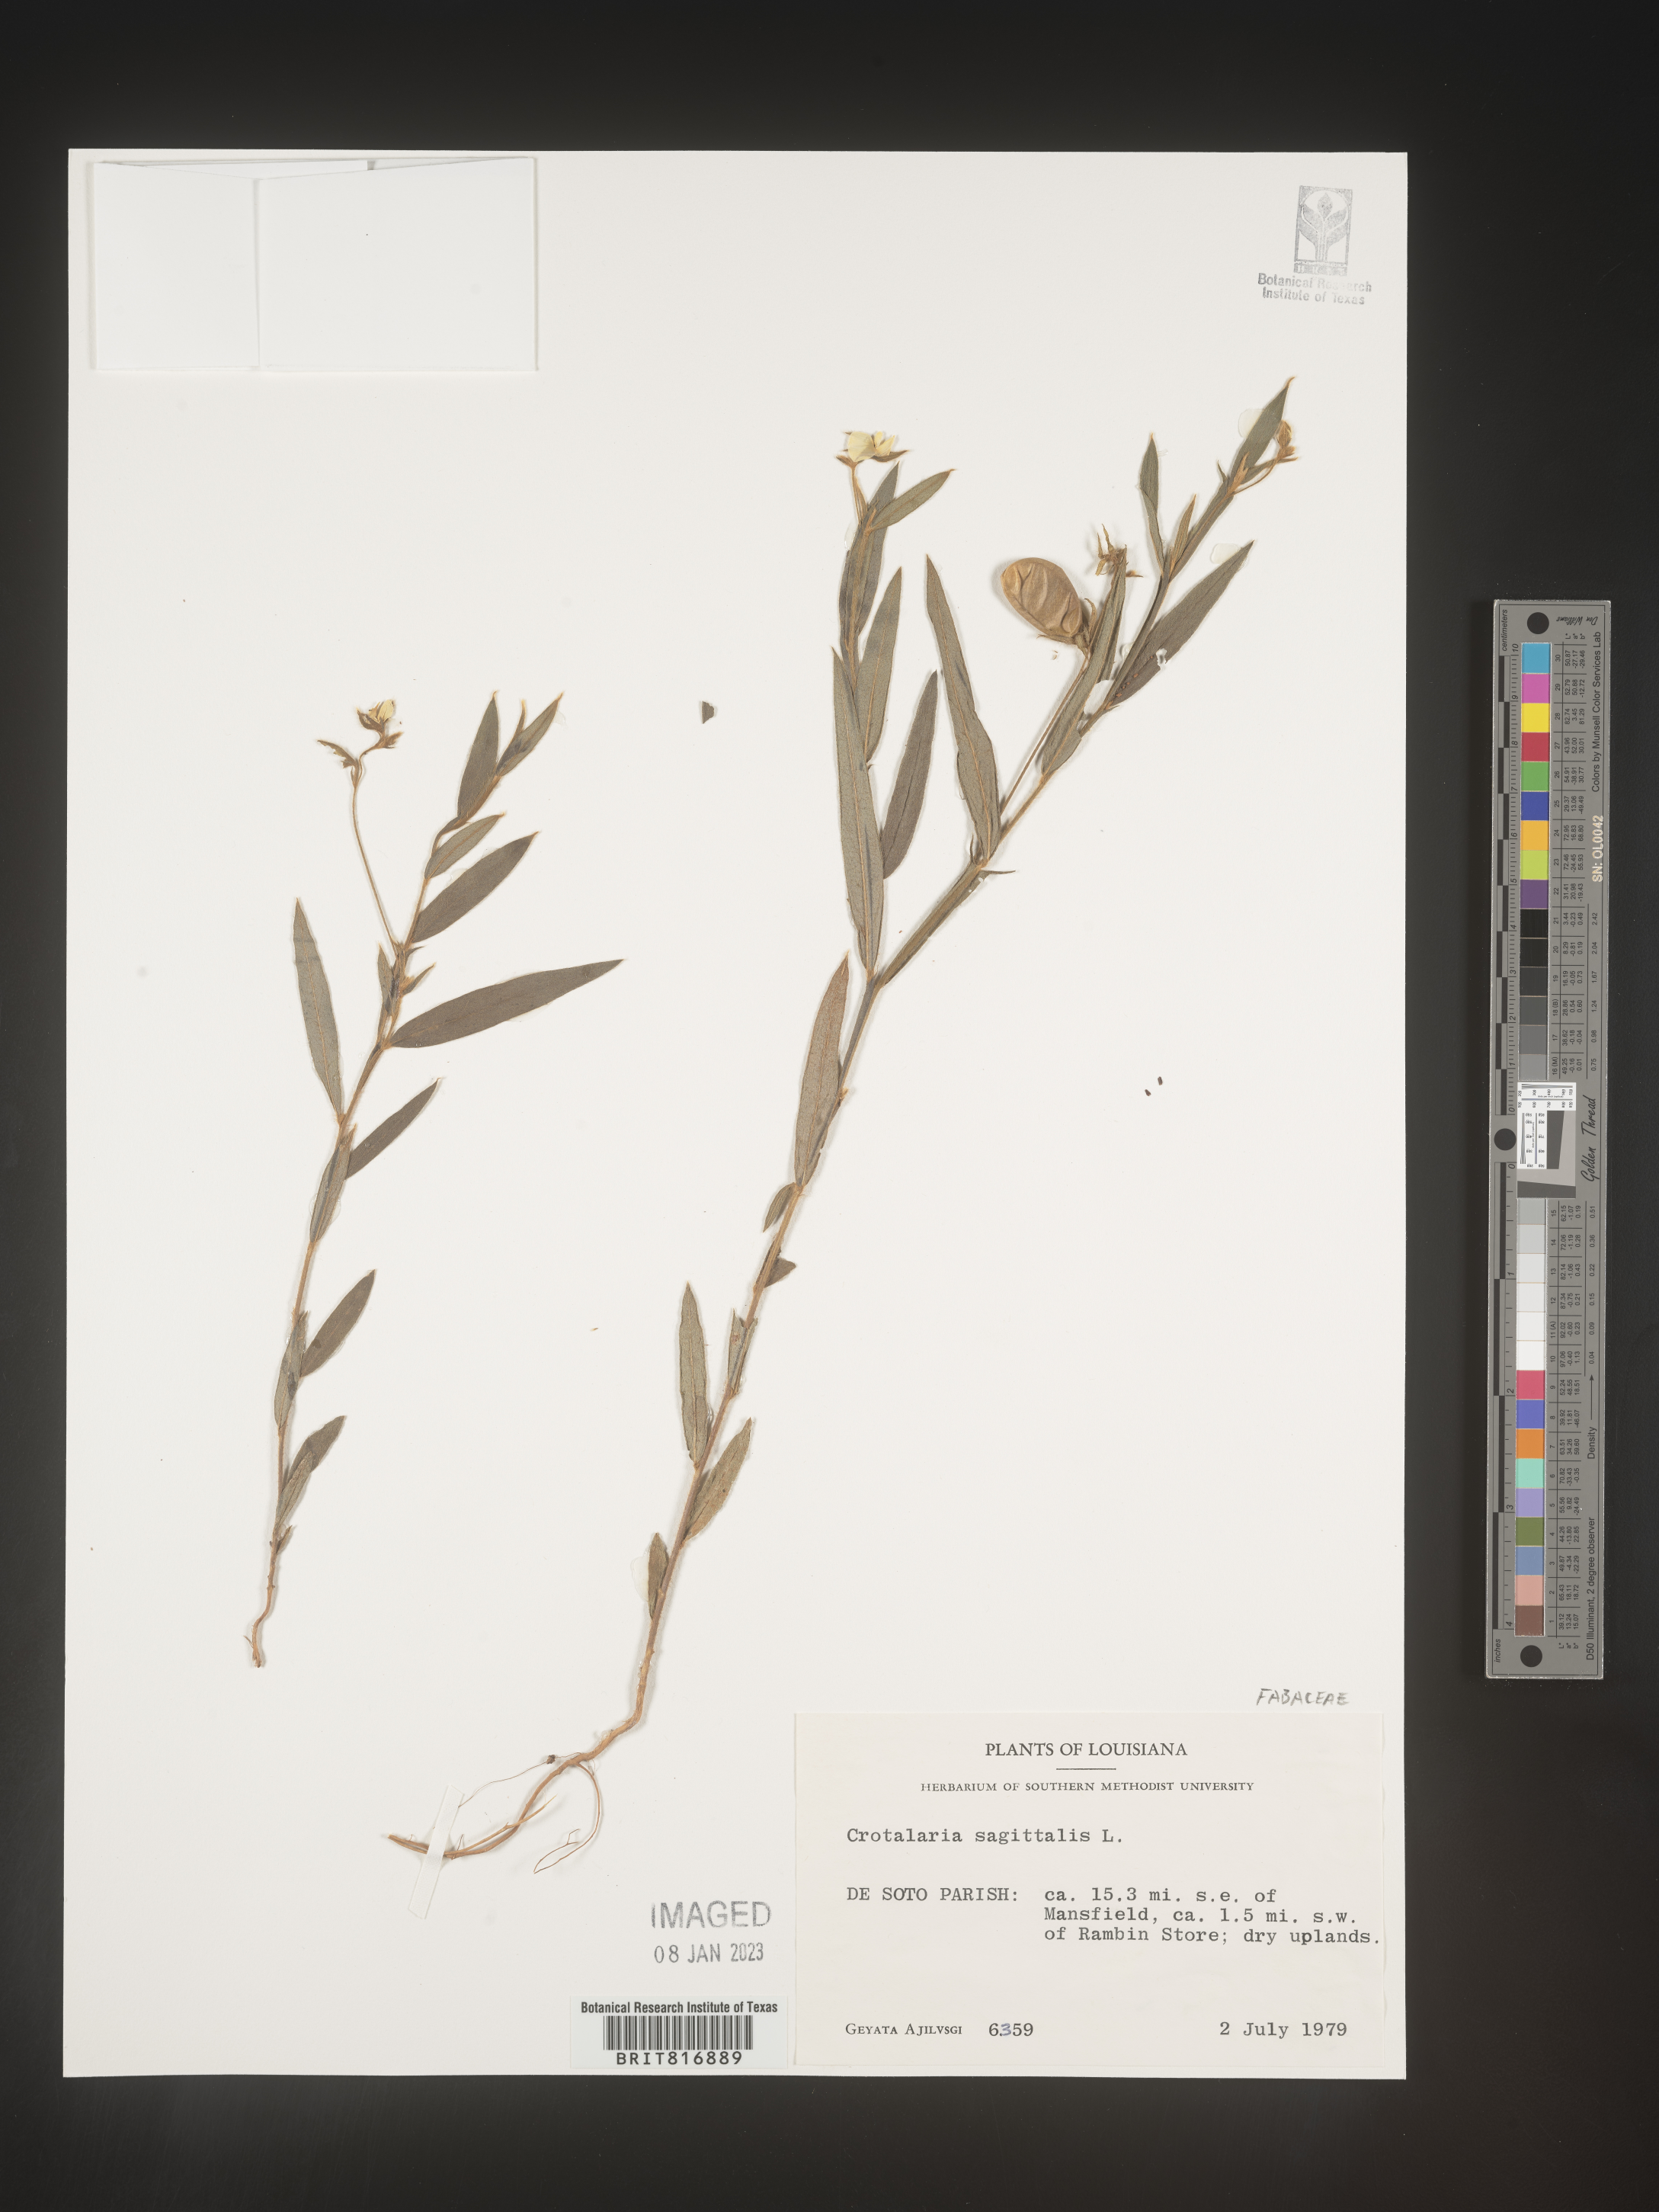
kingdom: Plantae
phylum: Tracheophyta
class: Magnoliopsida
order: Fabales
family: Fabaceae
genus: Crotalaria
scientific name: Crotalaria sagittalis
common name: Arrowhead rattlebox
